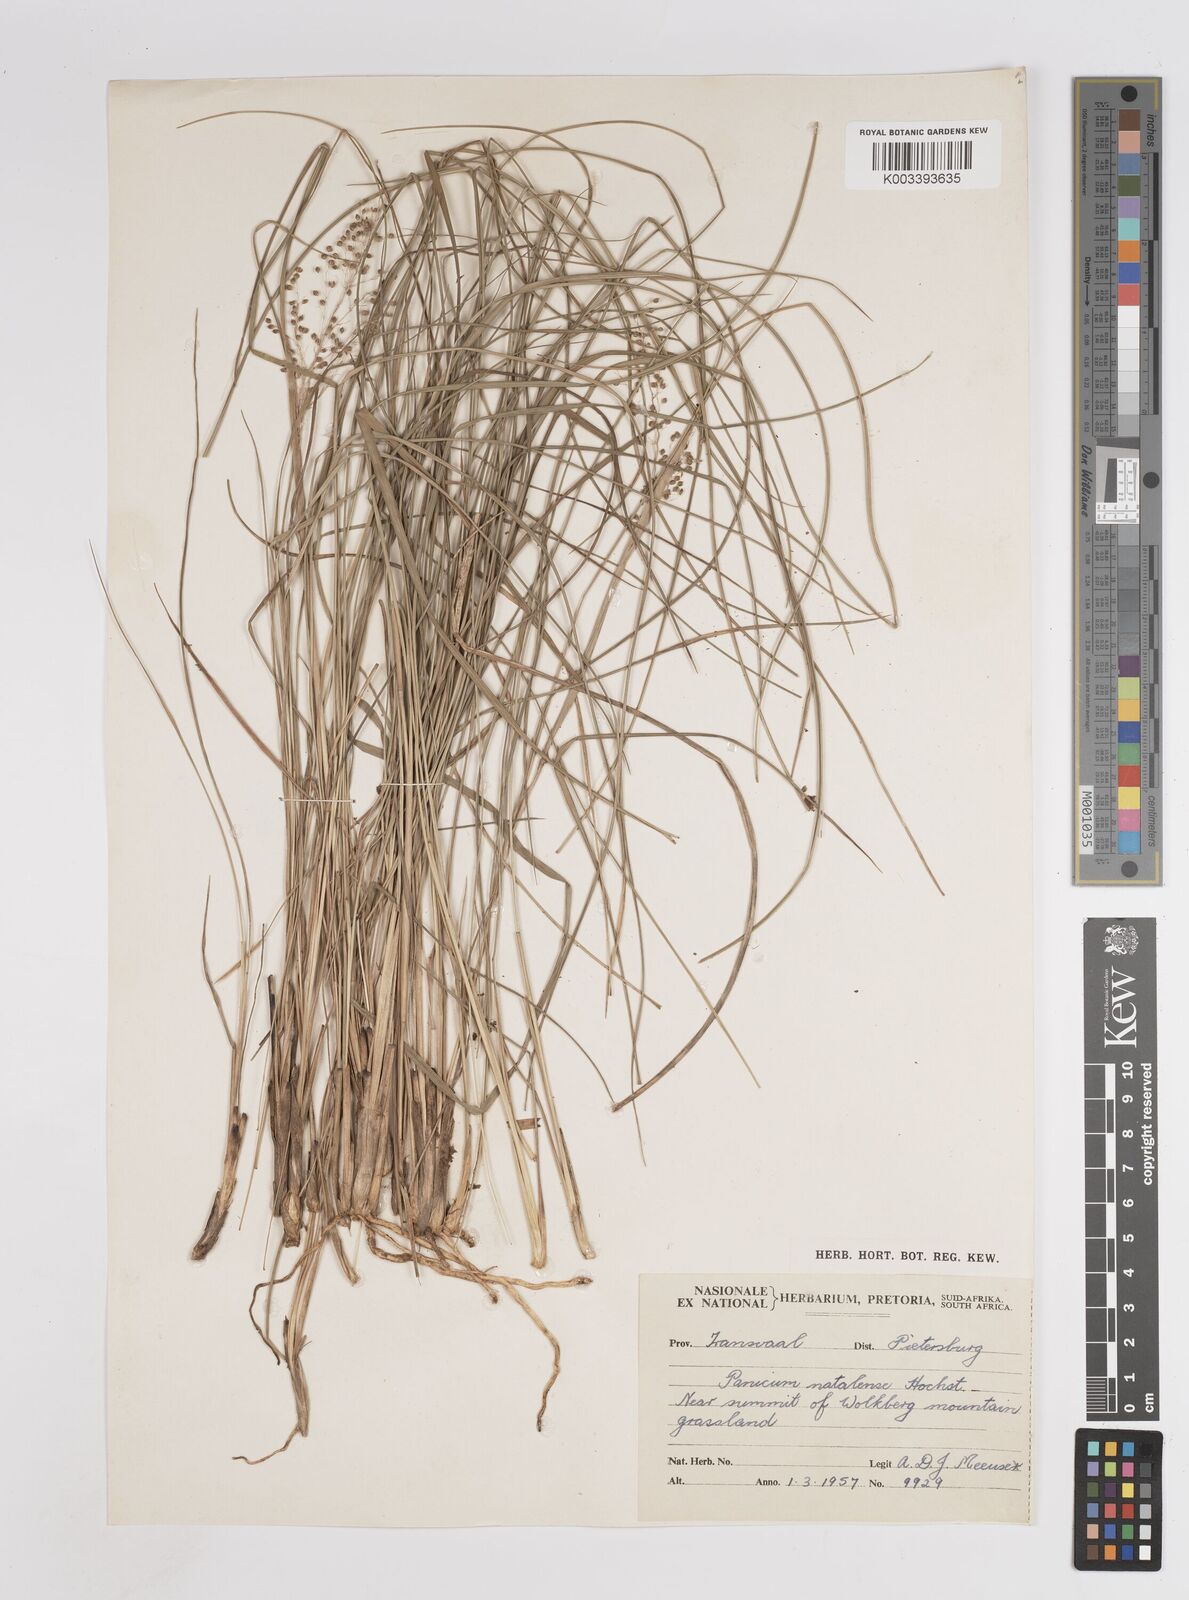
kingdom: Plantae
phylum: Tracheophyta
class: Liliopsida
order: Poales
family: Poaceae
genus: Trichanthecium
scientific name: Trichanthecium natalense
